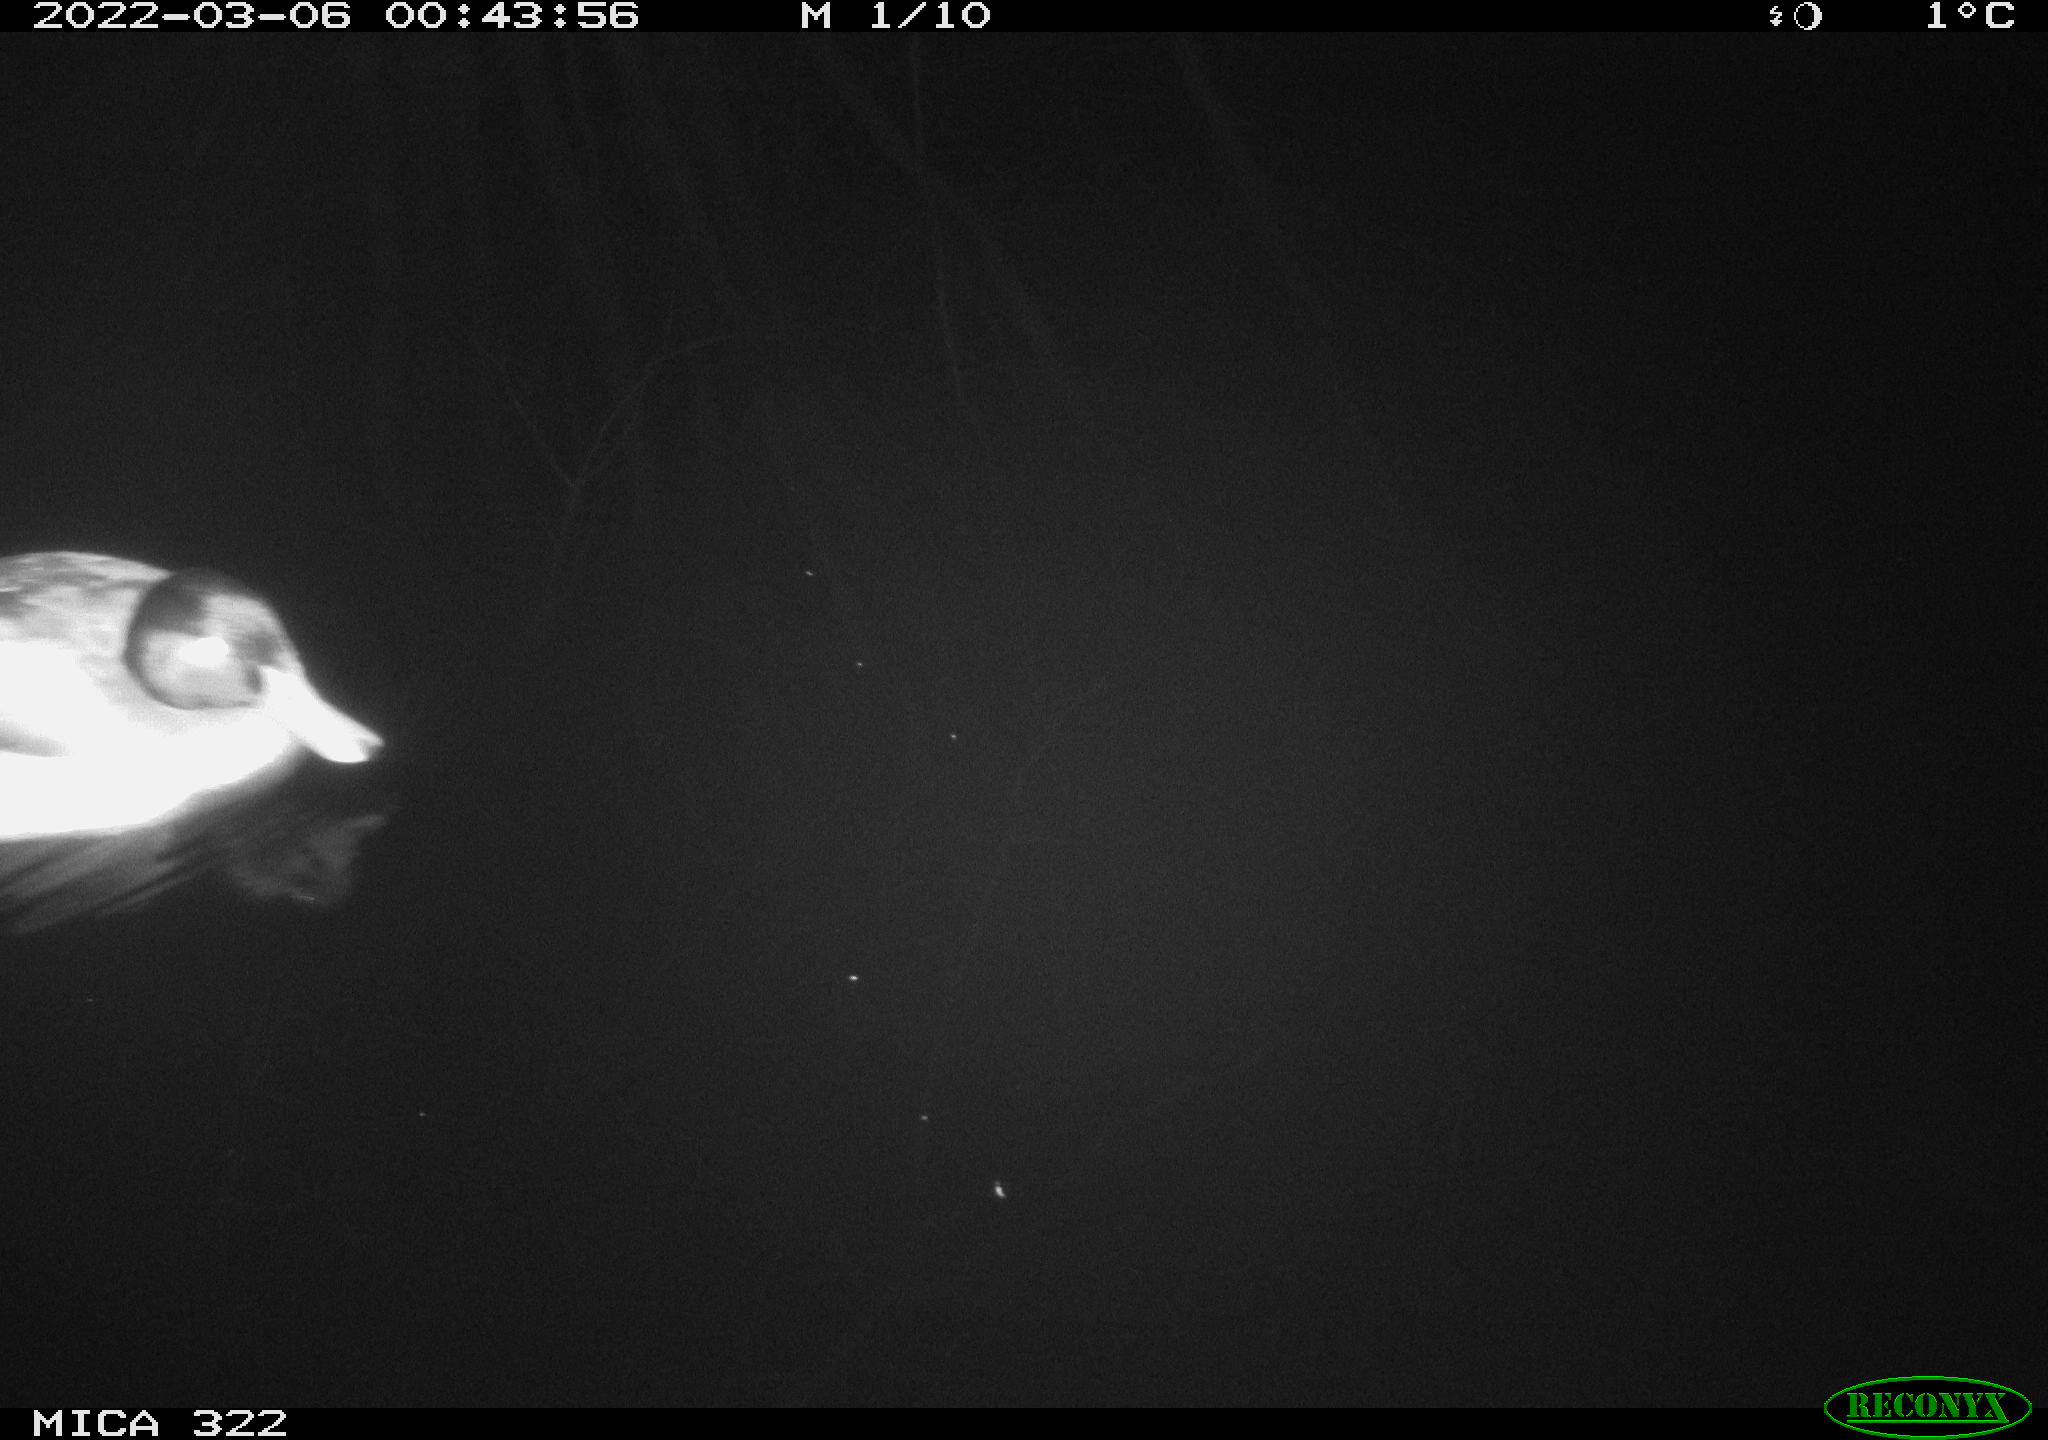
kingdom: Animalia
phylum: Chordata
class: Aves
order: Anseriformes
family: Anatidae
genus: Anas
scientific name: Anas platyrhynchos
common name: Mallard
